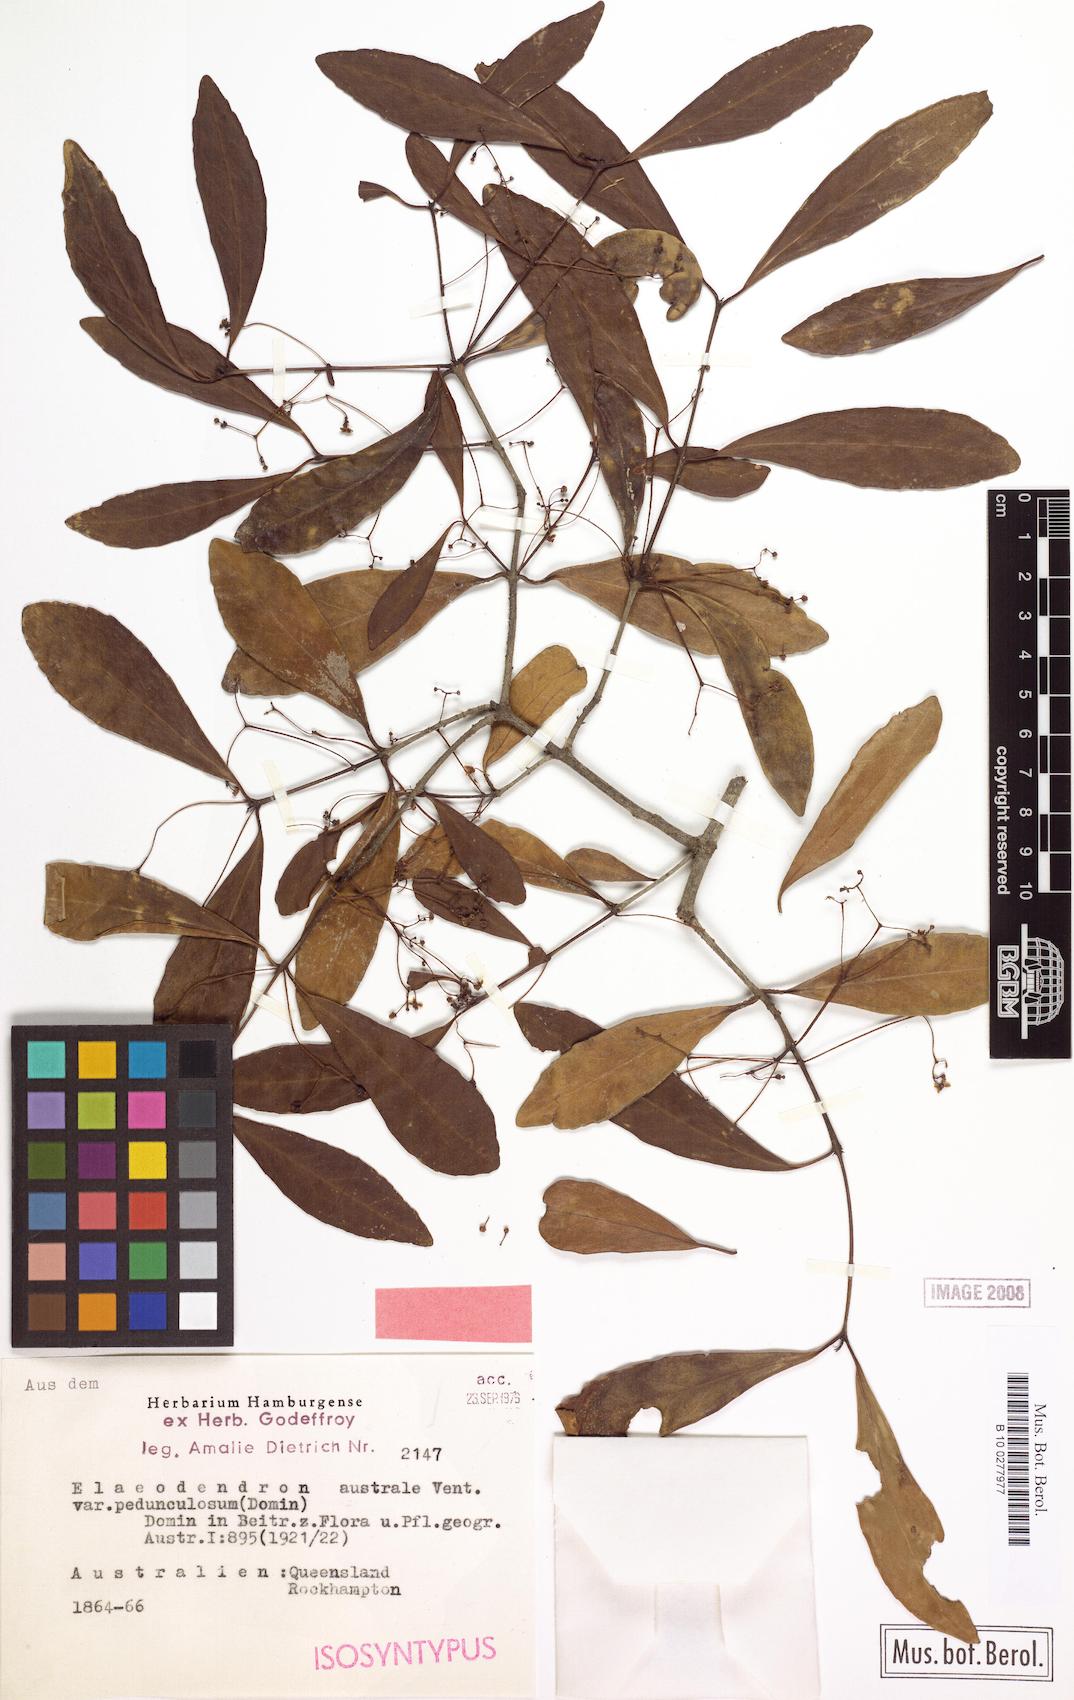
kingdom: Plantae
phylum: Tracheophyta
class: Magnoliopsida
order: Celastrales
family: Celastraceae
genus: Elaeodendron
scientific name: Elaeodendron australe
